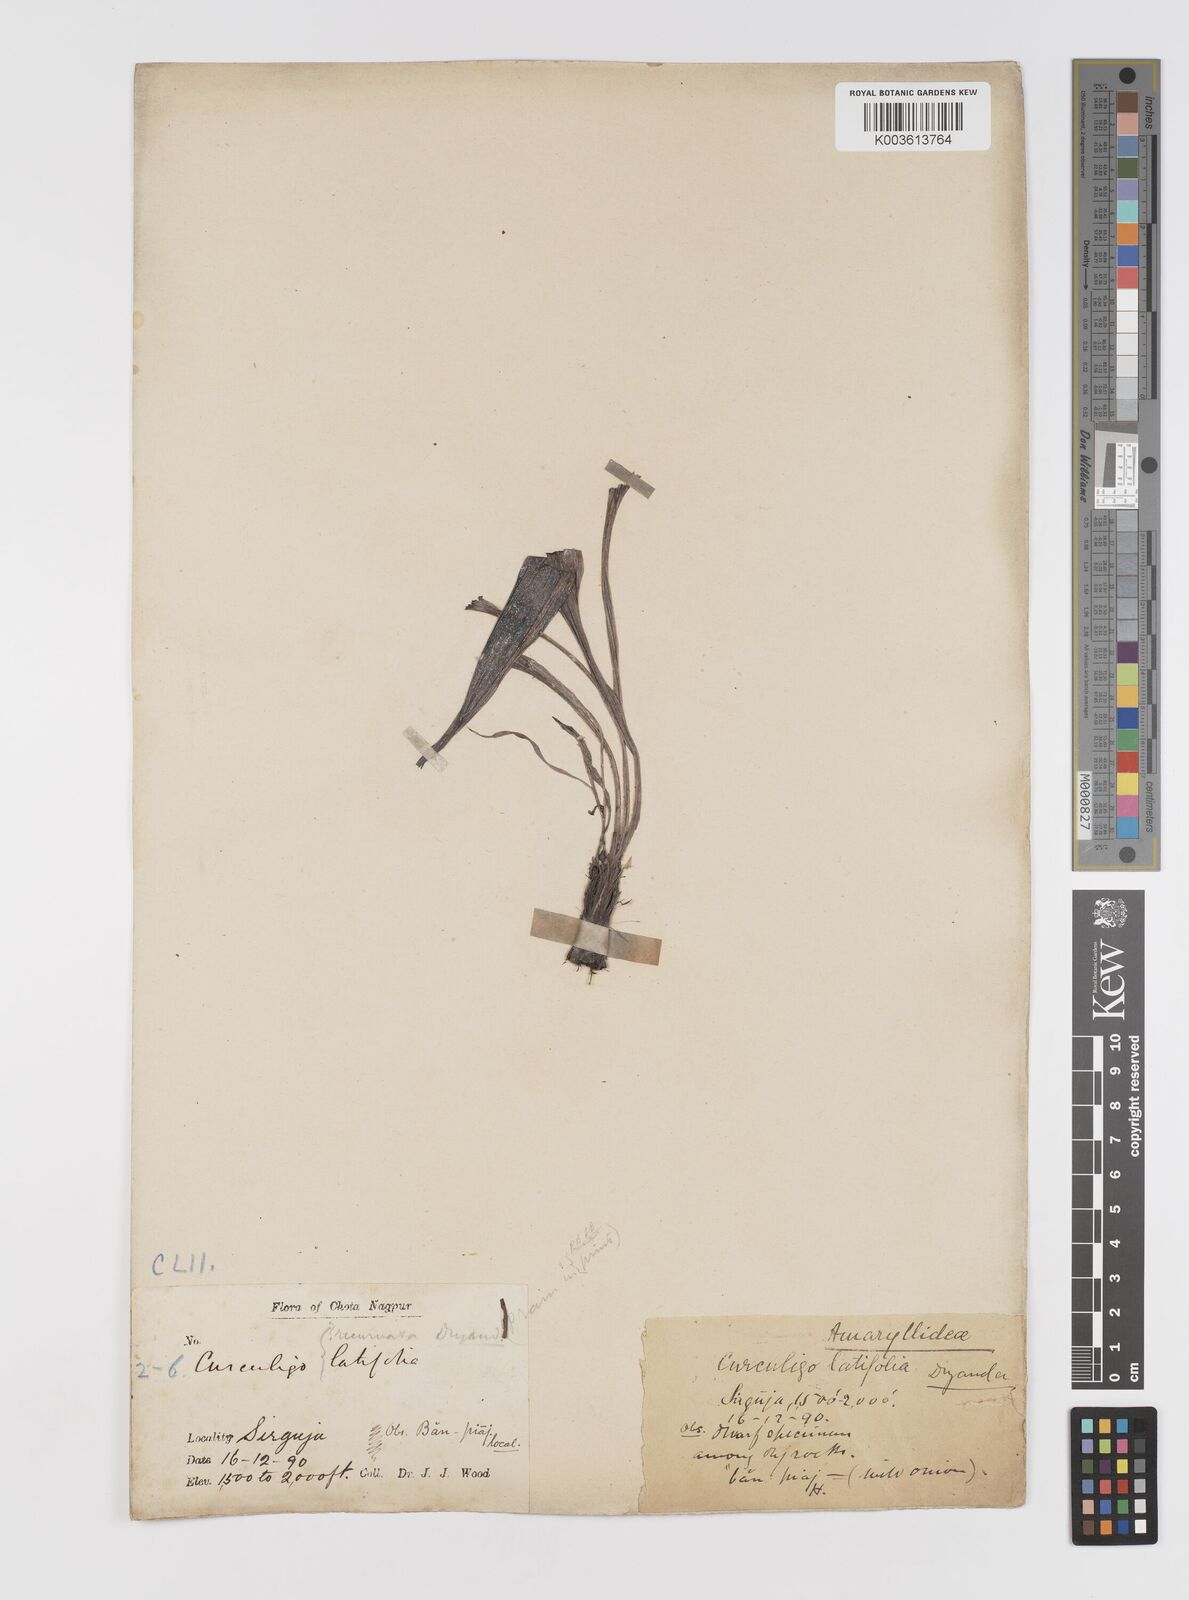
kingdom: Plantae
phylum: Tracheophyta
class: Liliopsida
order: Asparagales
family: Hypoxidaceae
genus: Curculigo
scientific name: Curculigo latifolia
